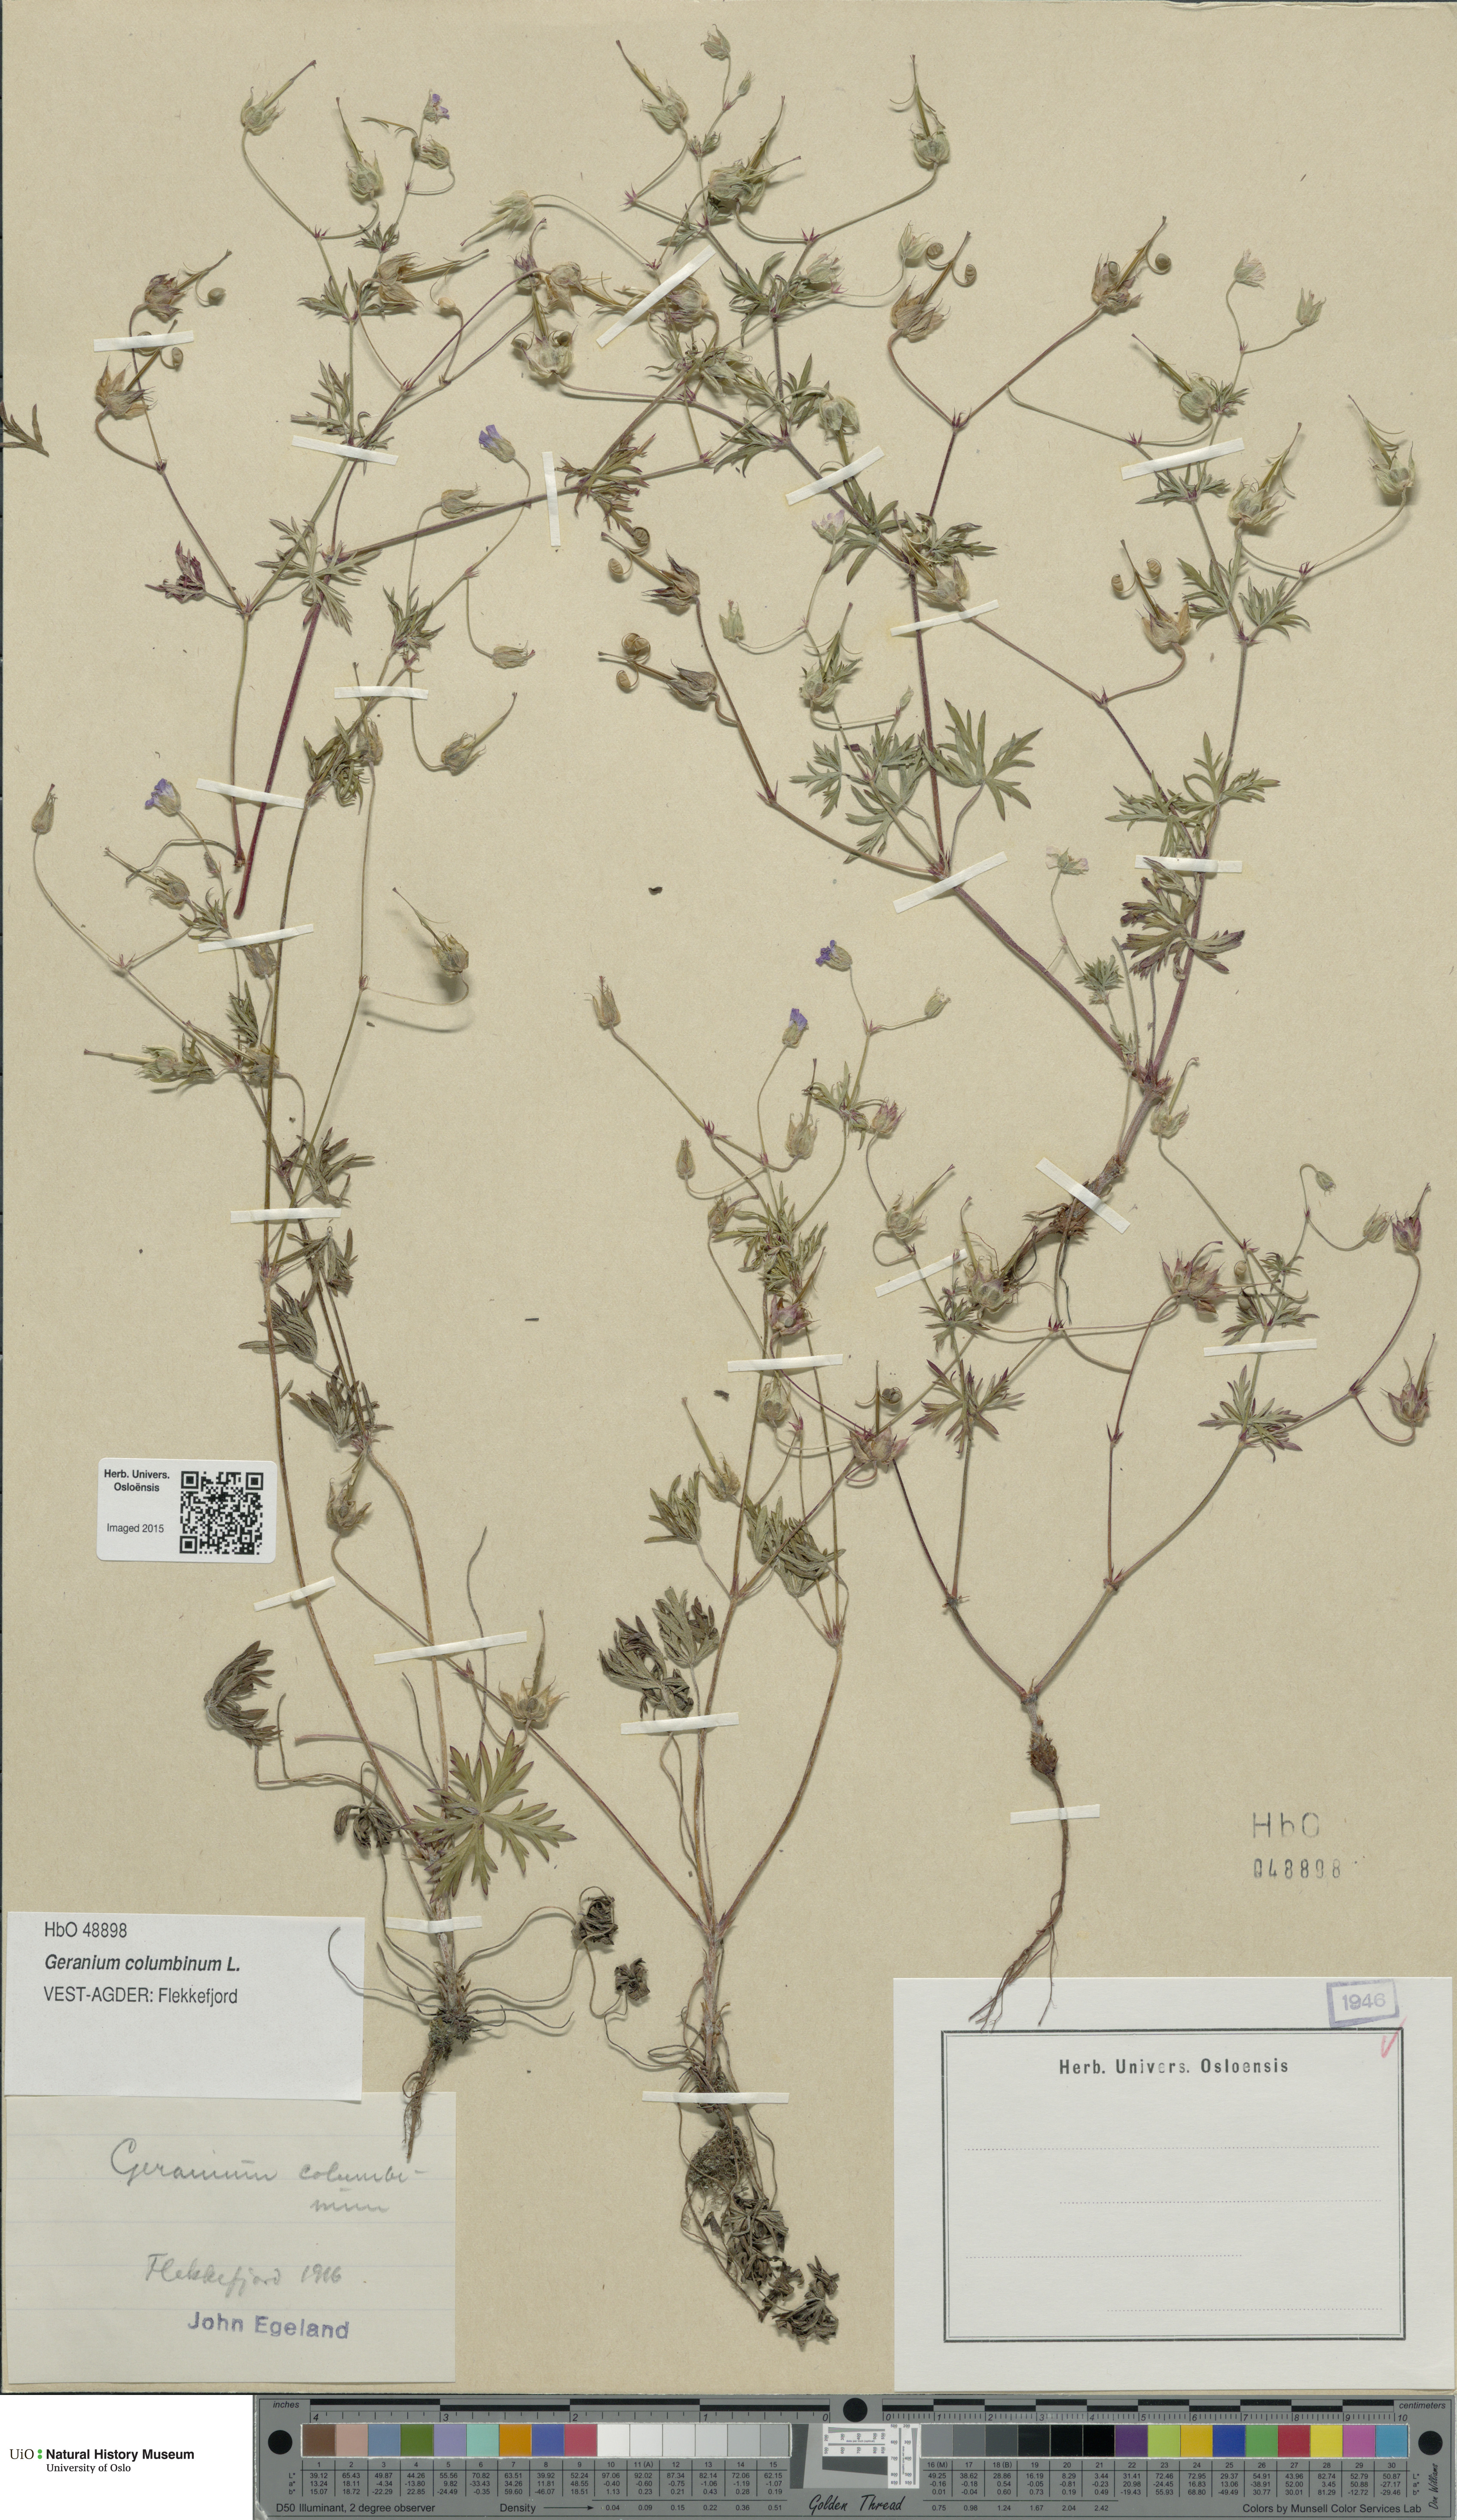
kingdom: Plantae
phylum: Tracheophyta
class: Magnoliopsida
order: Geraniales
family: Geraniaceae
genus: Geranium
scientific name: Geranium columbinum
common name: Long-stalked crane's-bill
